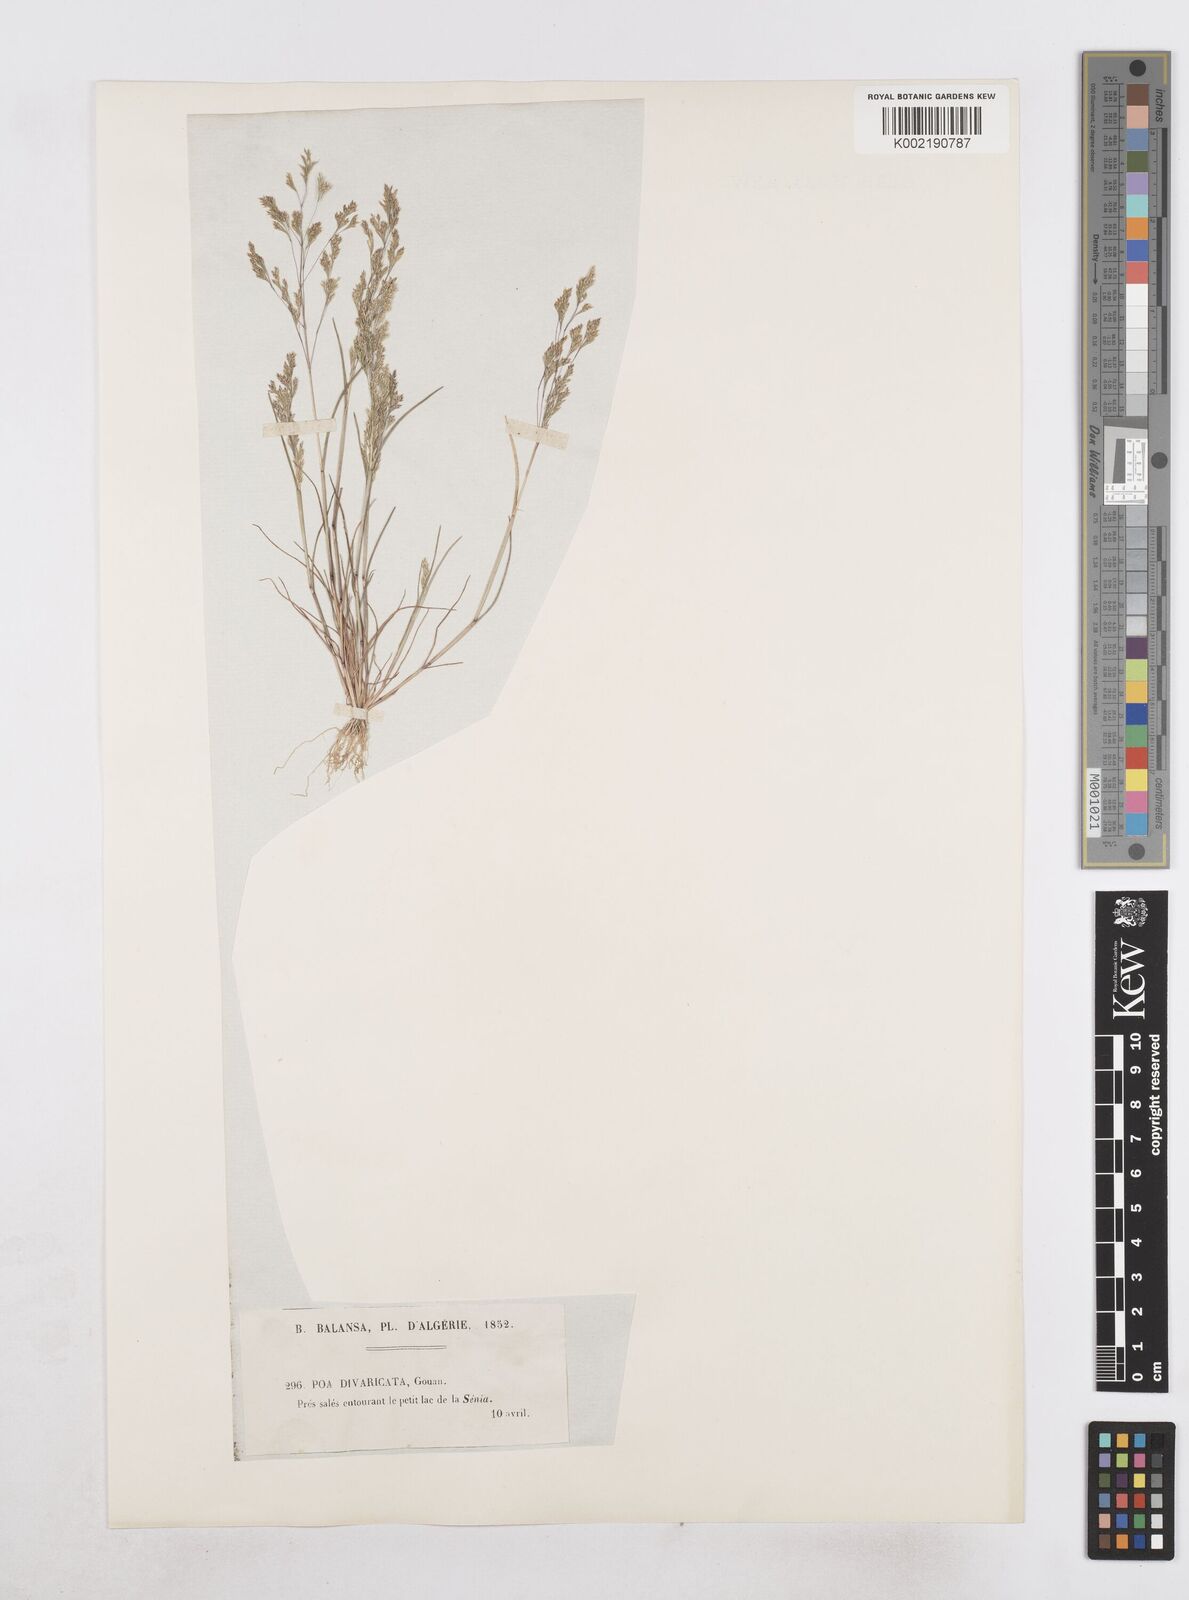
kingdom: Plantae
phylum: Tracheophyta
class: Liliopsida
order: Poales
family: Poaceae
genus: Sphenopus
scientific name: Sphenopus divaricatus
